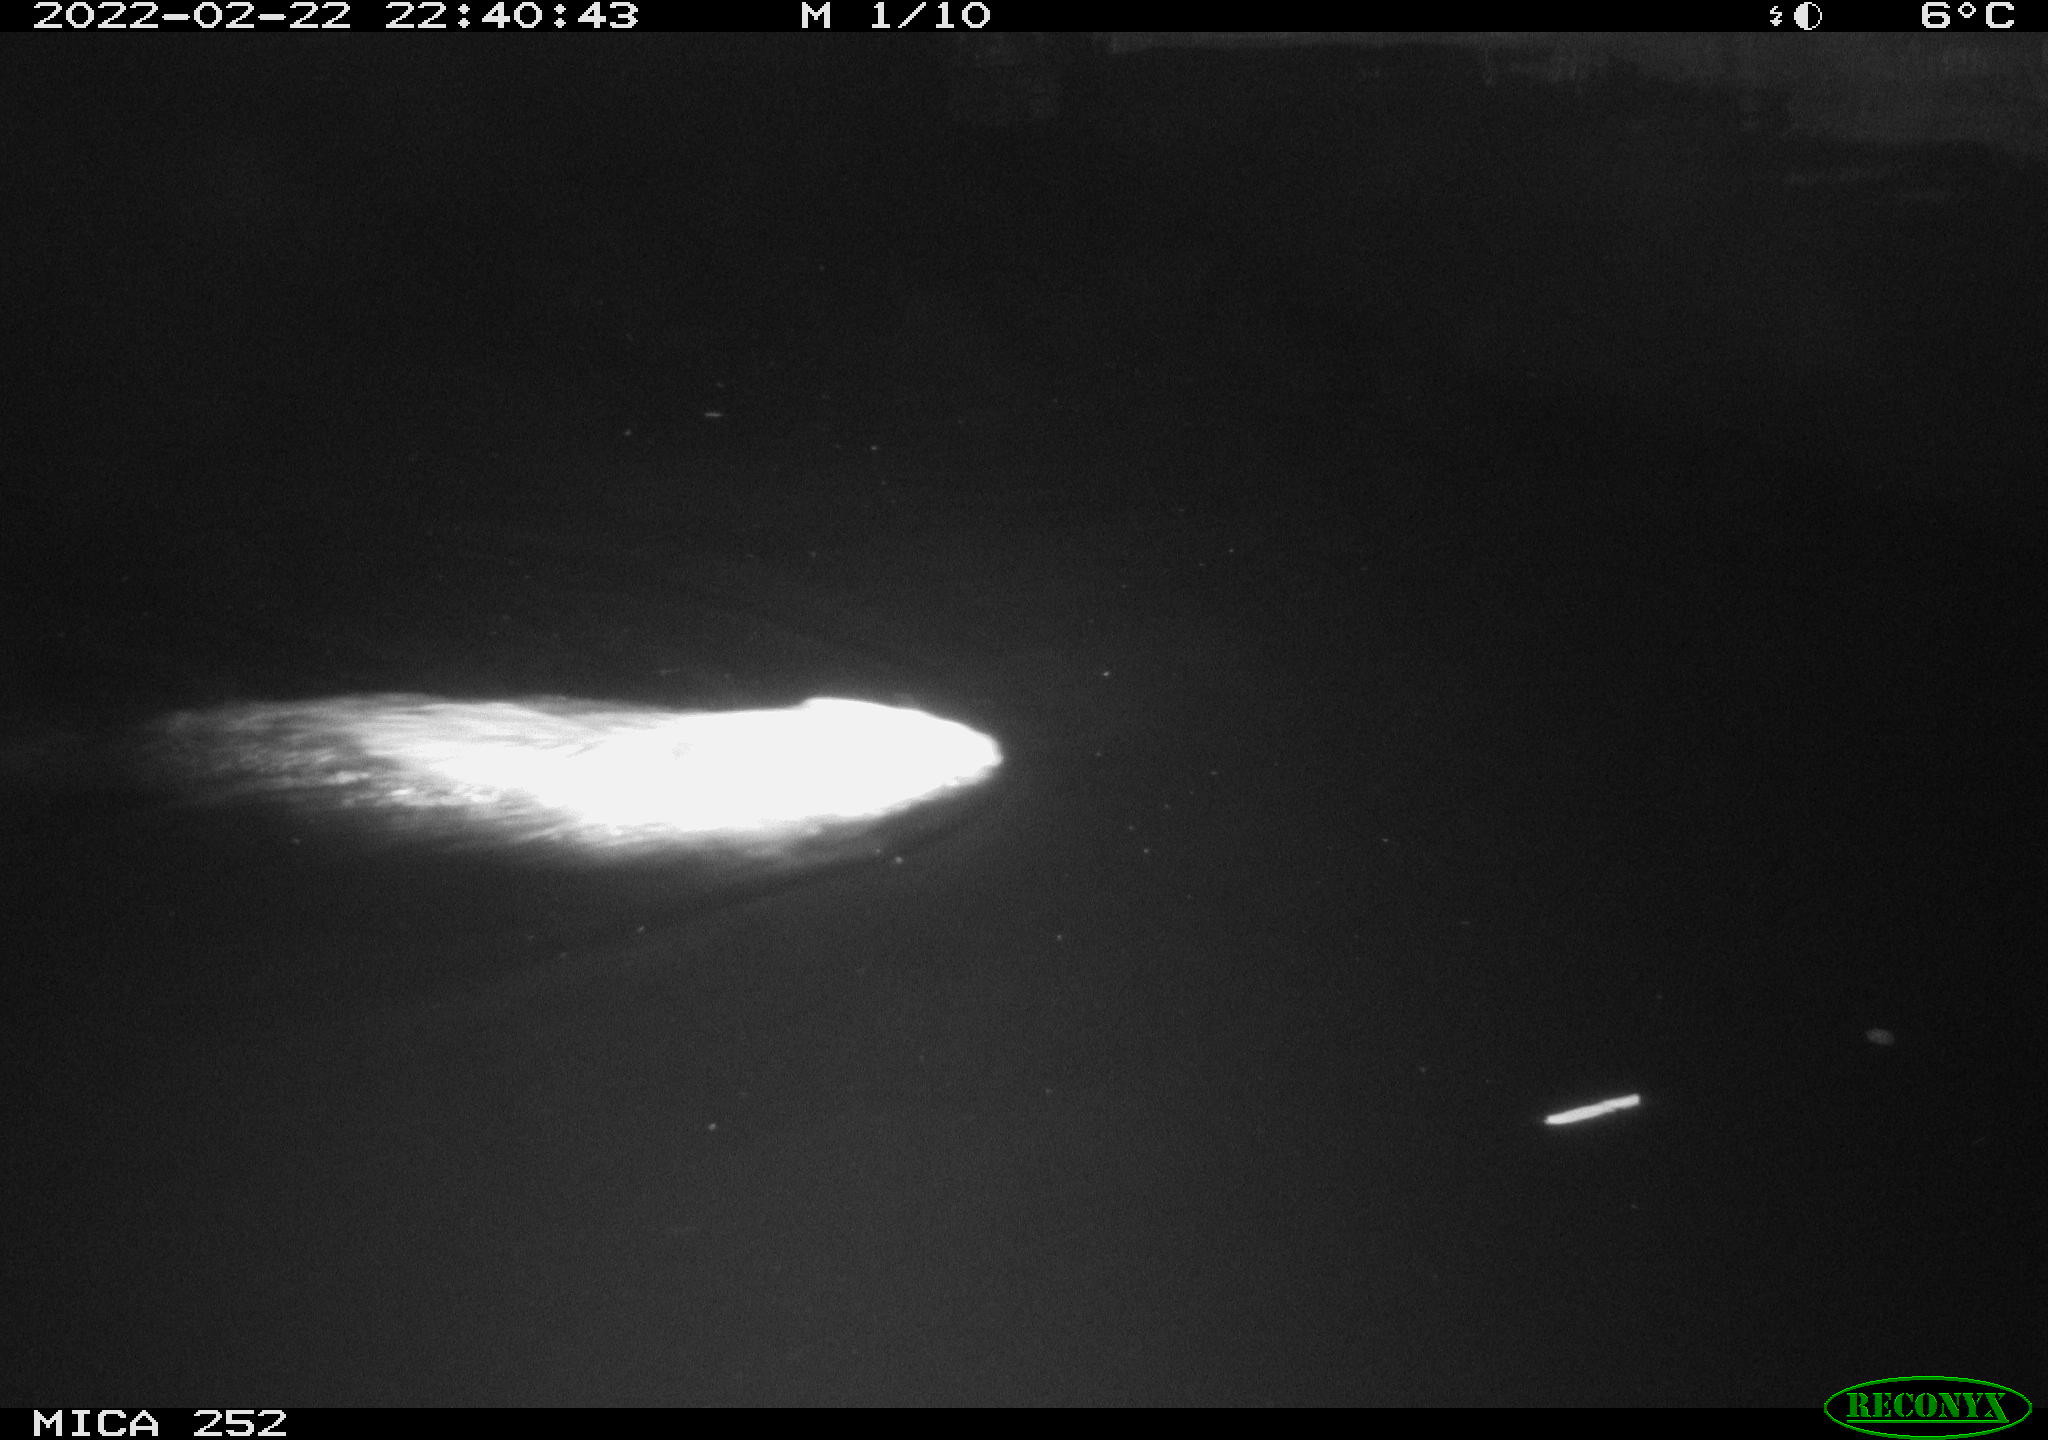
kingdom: Animalia
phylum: Chordata
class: Mammalia
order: Rodentia
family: Castoridae
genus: Castor
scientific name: Castor fiber
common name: Eurasian beaver
